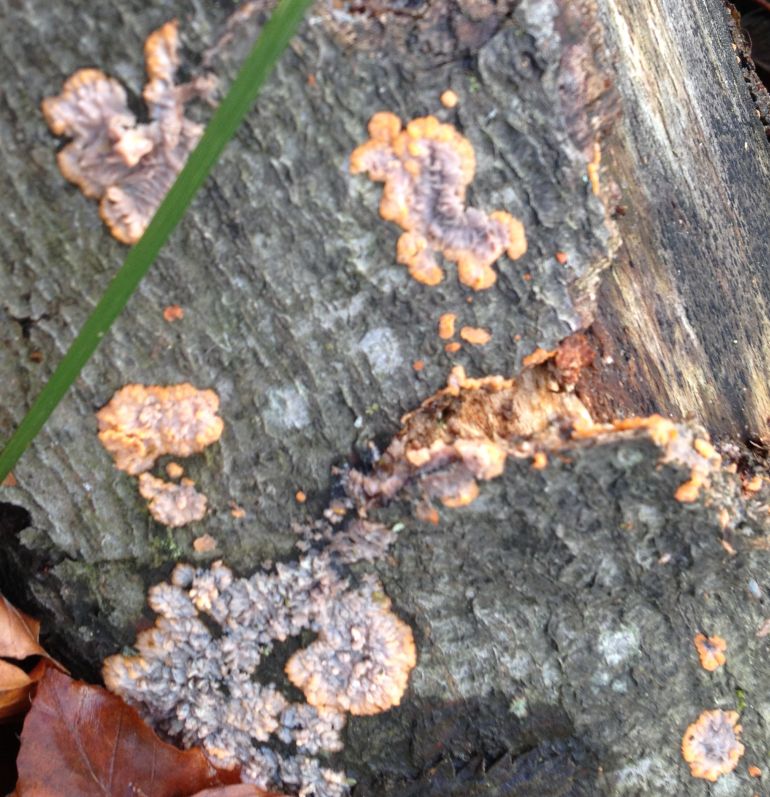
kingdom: Fungi
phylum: Basidiomycota
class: Agaricomycetes
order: Polyporales
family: Meruliaceae
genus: Phlebia
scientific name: Phlebia radiata
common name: stråle-åresvamp
